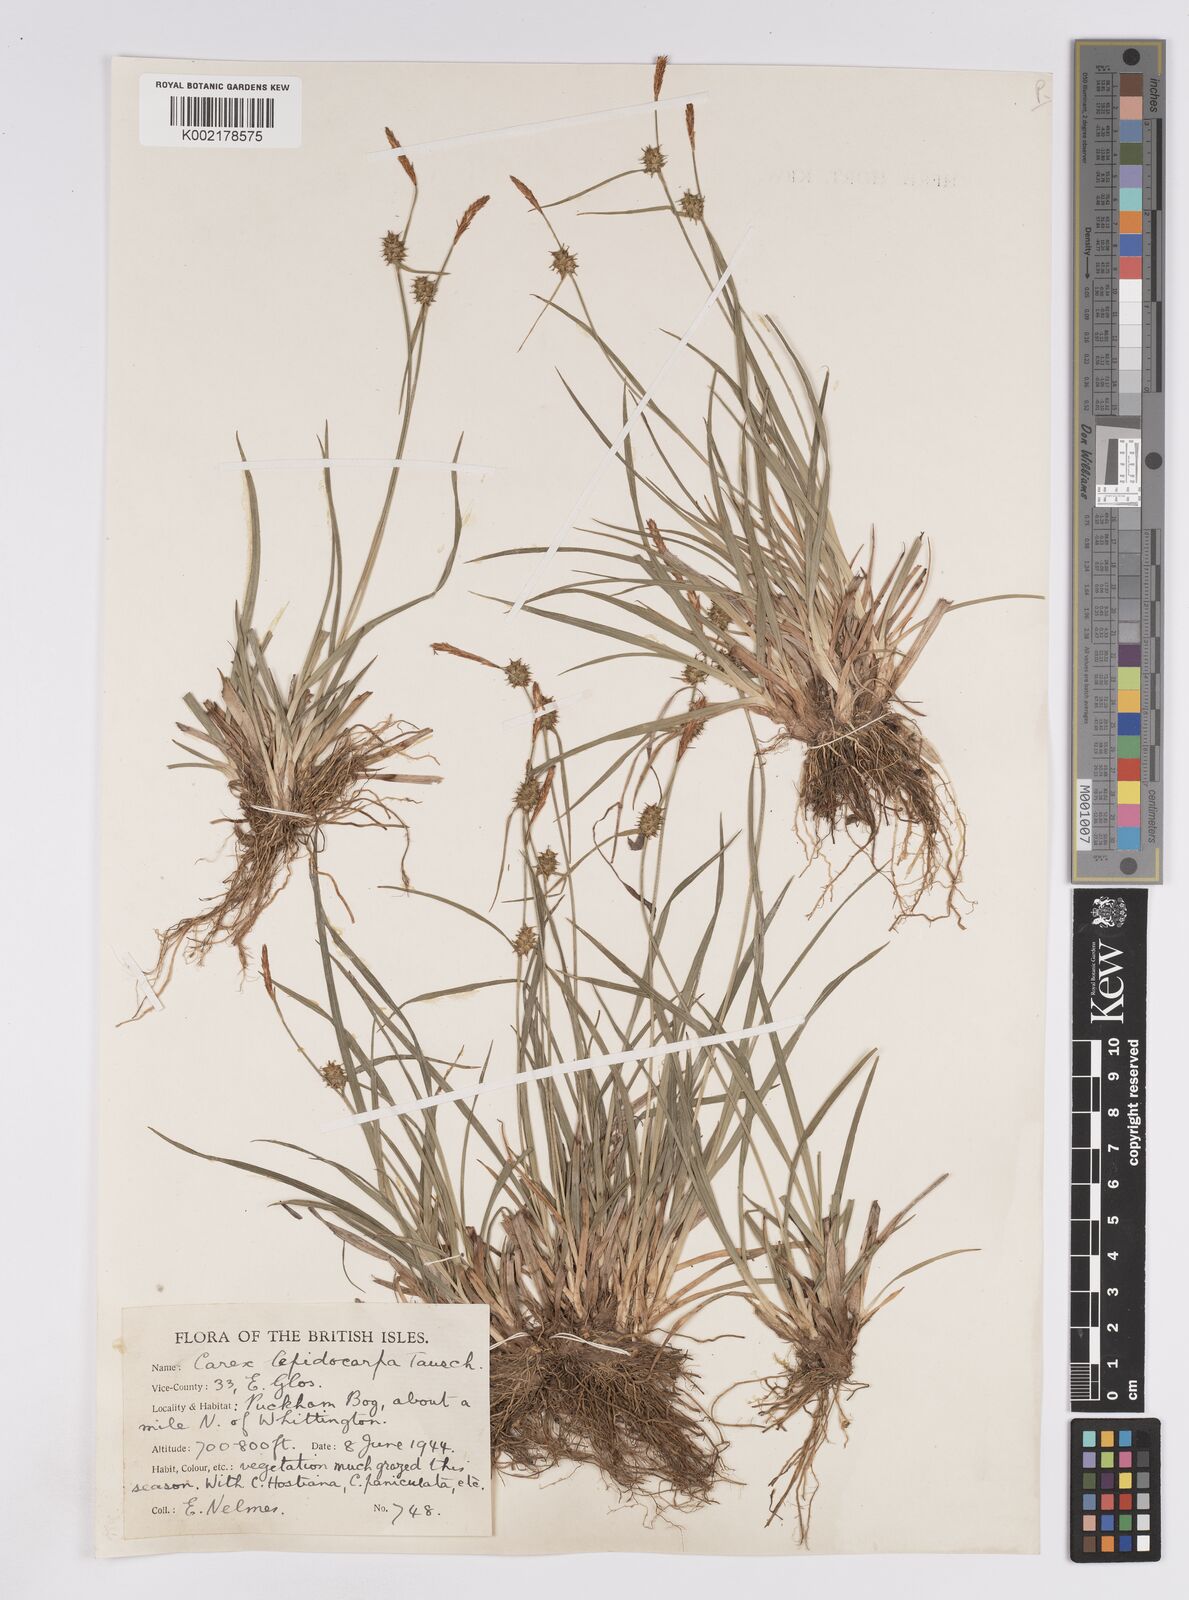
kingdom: Plantae
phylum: Tracheophyta
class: Liliopsida
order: Poales
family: Cyperaceae
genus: Carex
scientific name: Carex lepidocarpa
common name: Long-stalked yellow-sedge
